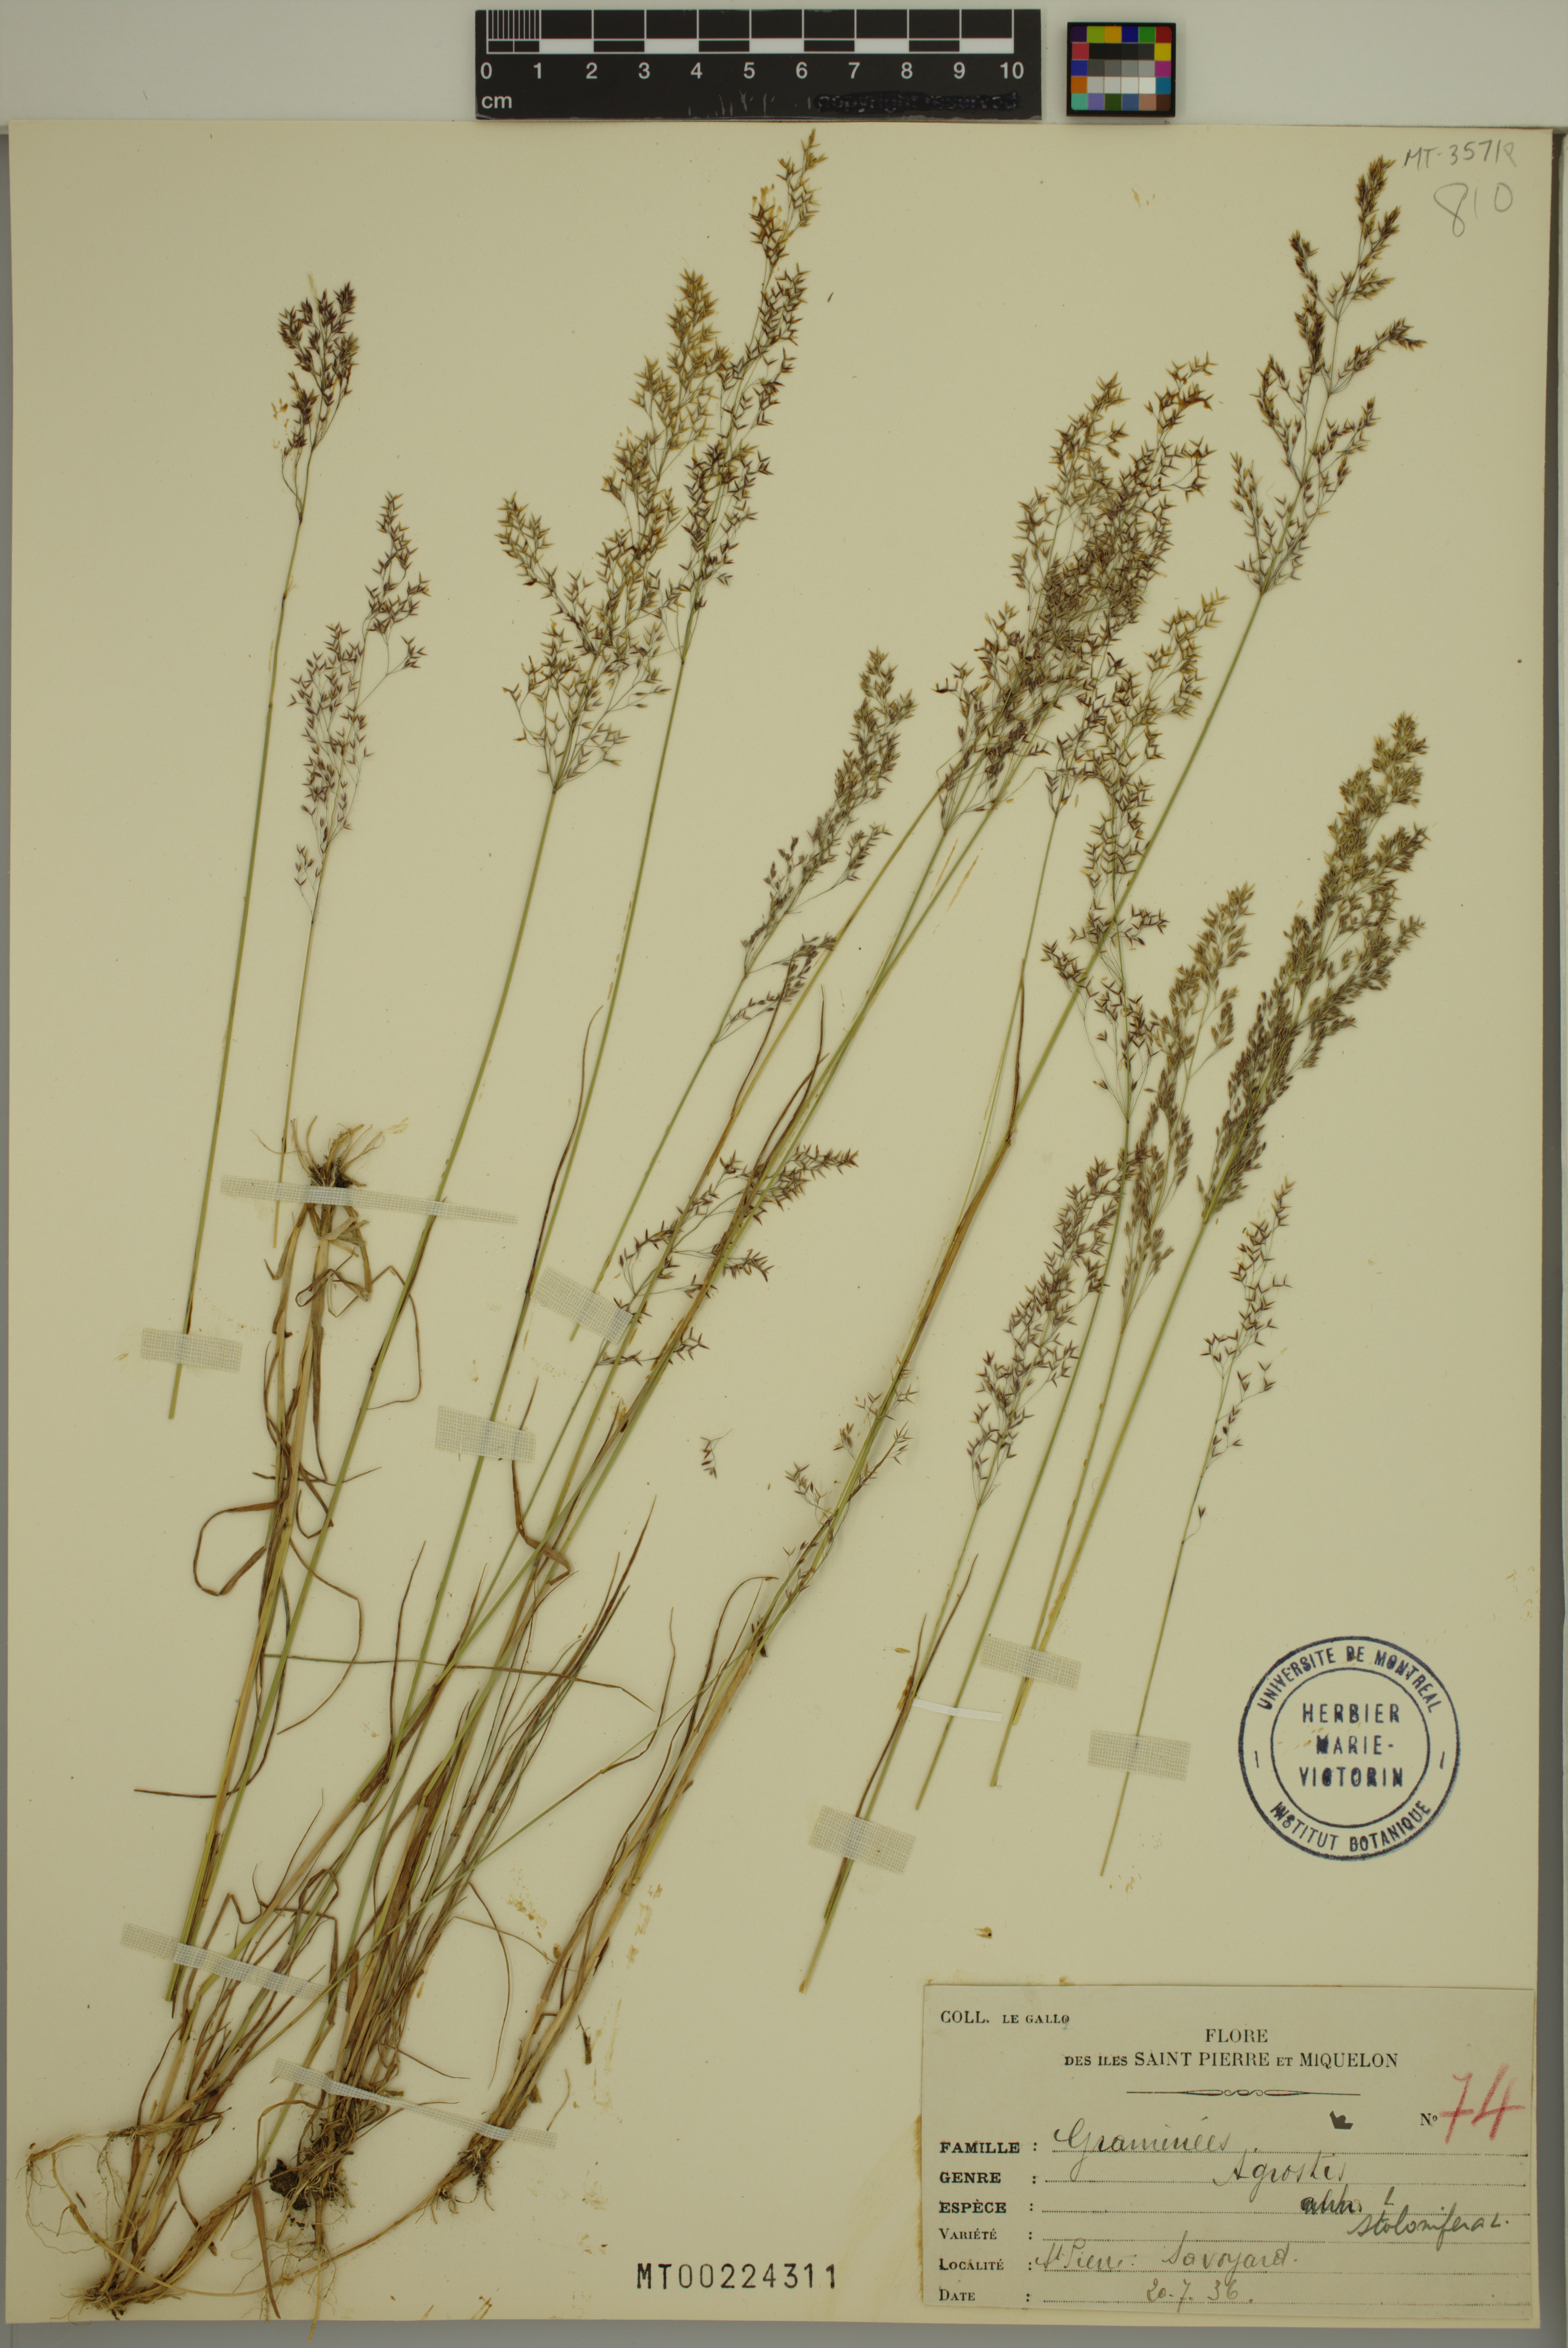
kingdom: Plantae
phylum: Tracheophyta
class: Liliopsida
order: Poales
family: Poaceae
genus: Agrostis
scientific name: Agrostis stolonifera
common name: Creeping bentgrass
